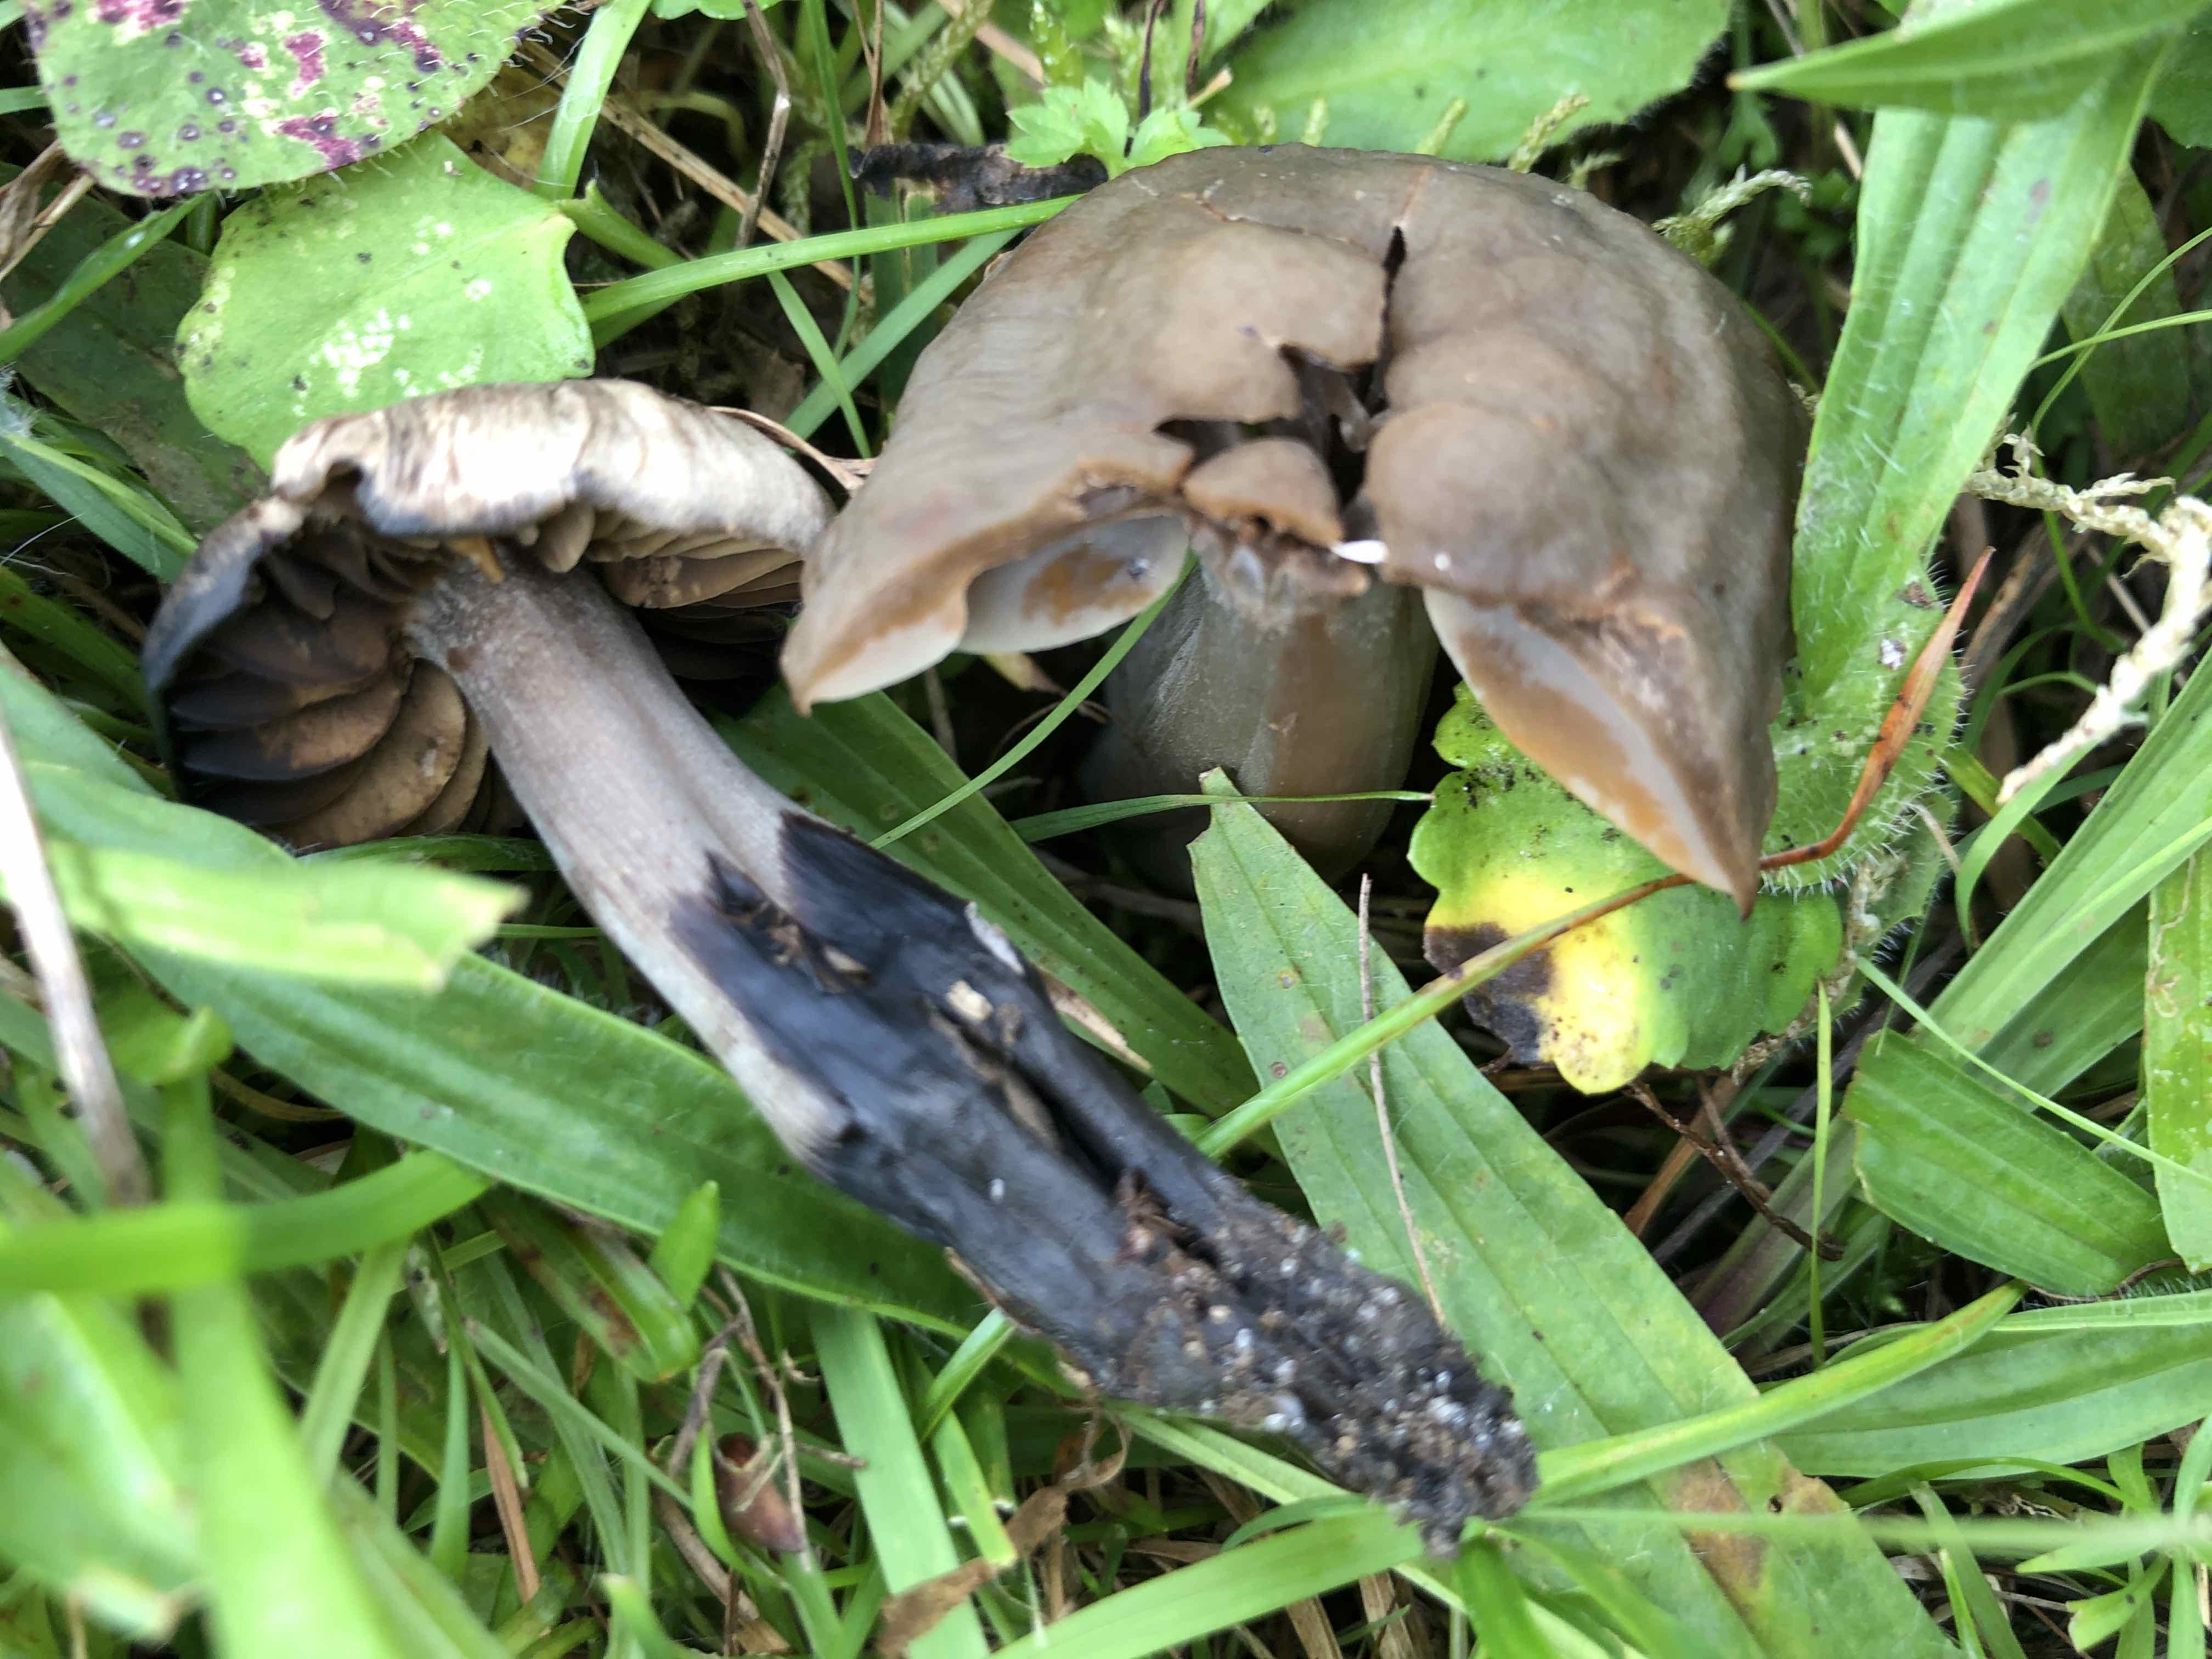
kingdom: Fungi
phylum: Basidiomycota
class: Agaricomycetes
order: Agaricales
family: Hygrophoraceae
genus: Neohygrocybe
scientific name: Neohygrocybe ovina
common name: rødmende vokshat
